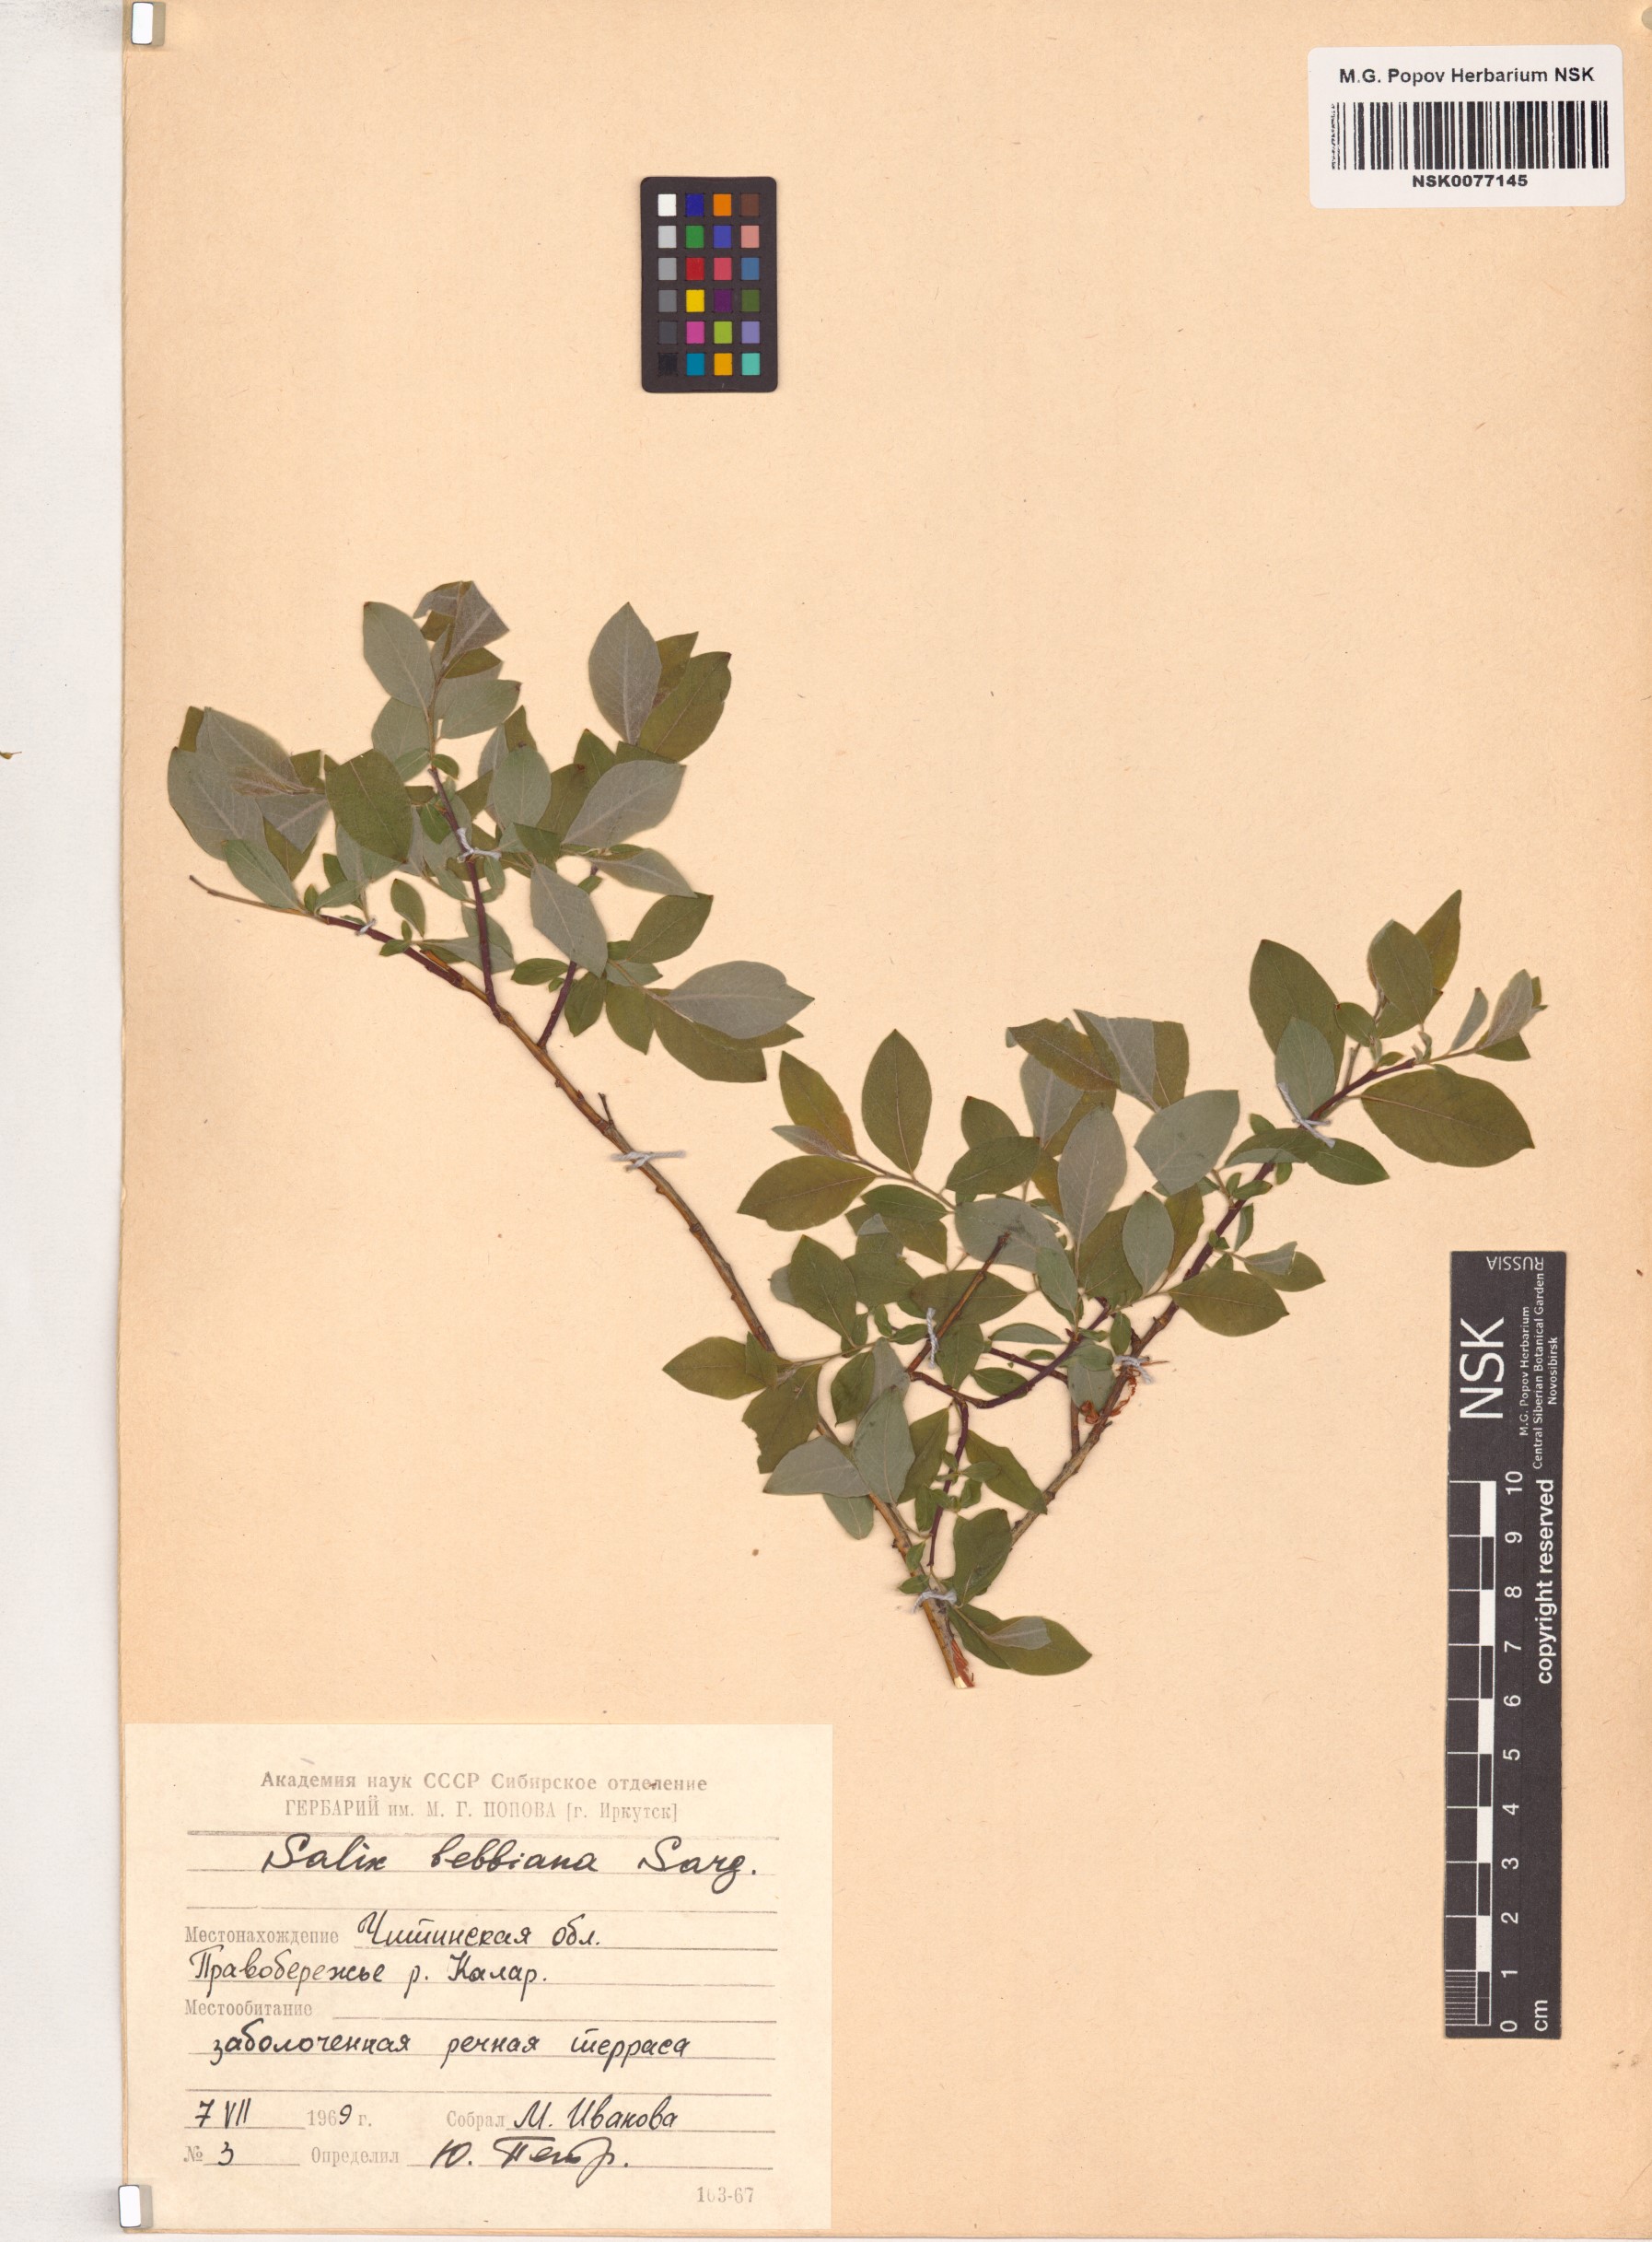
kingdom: Plantae
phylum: Tracheophyta
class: Magnoliopsida
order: Malpighiales
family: Salicaceae
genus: Salix
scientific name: Salix bebbiana
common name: Bebb's willow
